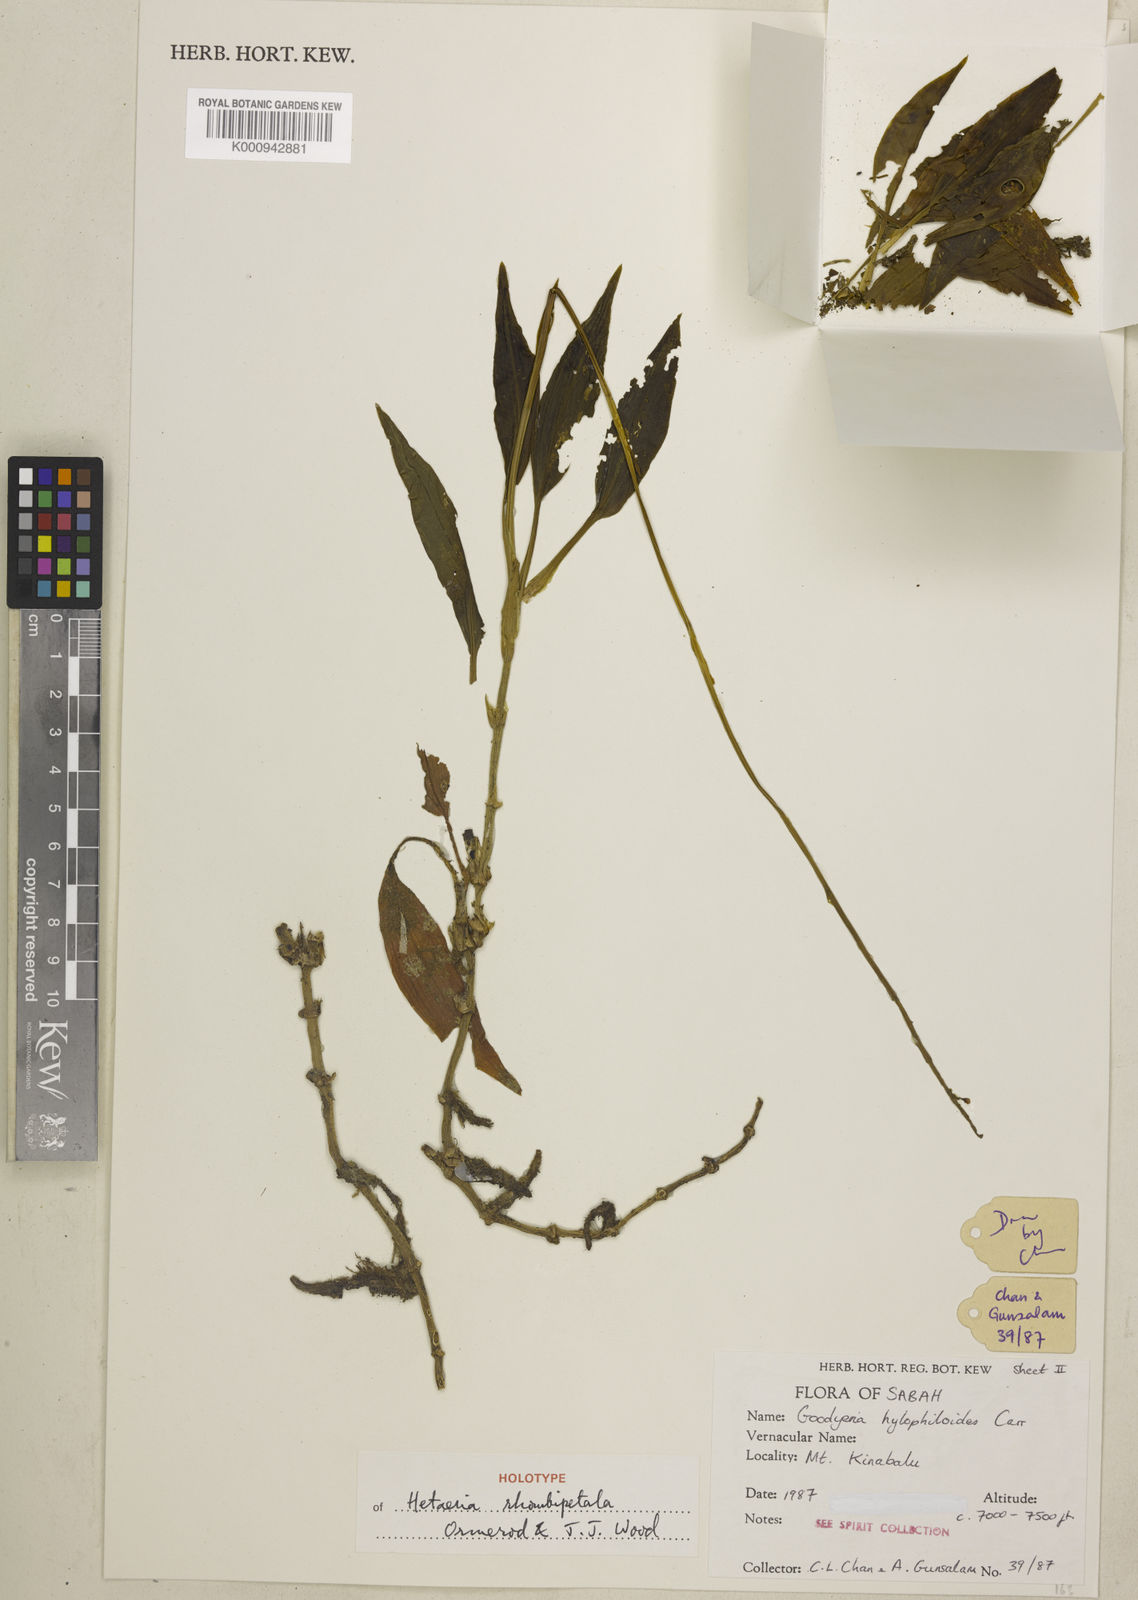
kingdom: Plantae
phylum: Tracheophyta
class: Liliopsida
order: Asparagales
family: Orchidaceae
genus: Hetaeria
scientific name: Hetaeria rhombipetala
